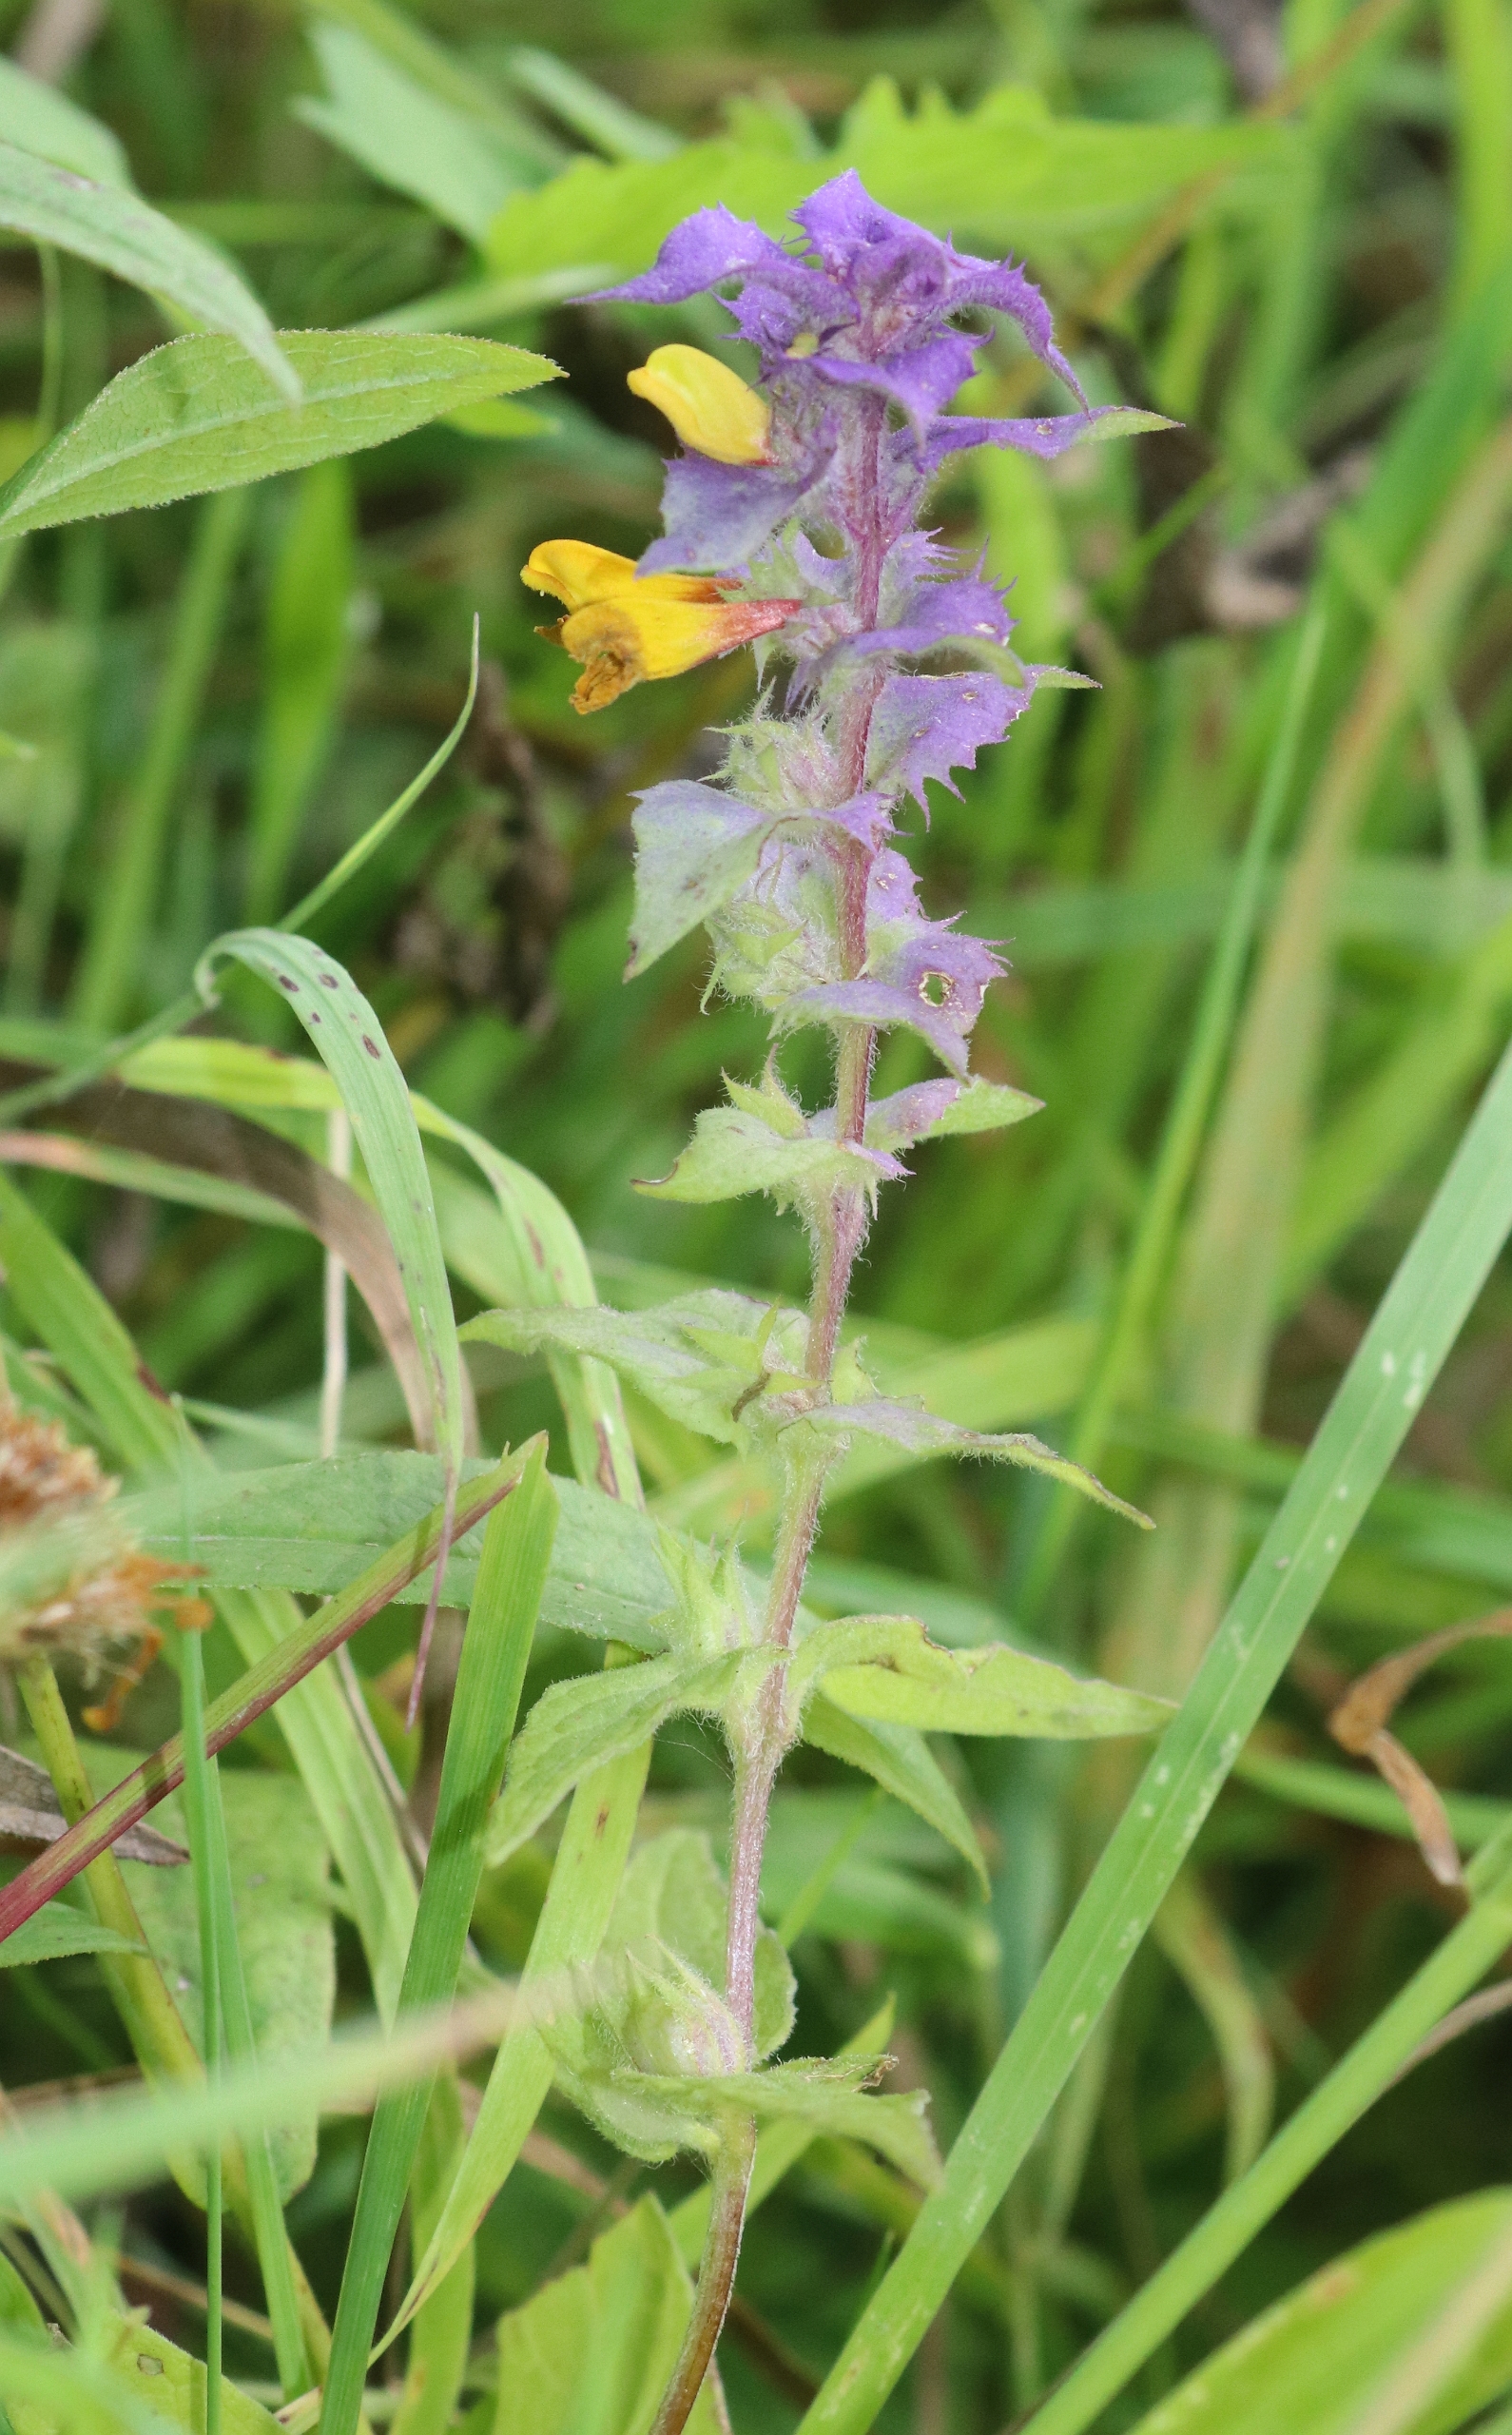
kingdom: Plantae
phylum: Tracheophyta
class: Magnoliopsida
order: Lamiales
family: Orobanchaceae
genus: Melampyrum
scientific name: Melampyrum nemorosum
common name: Blåtoppet kohvede
